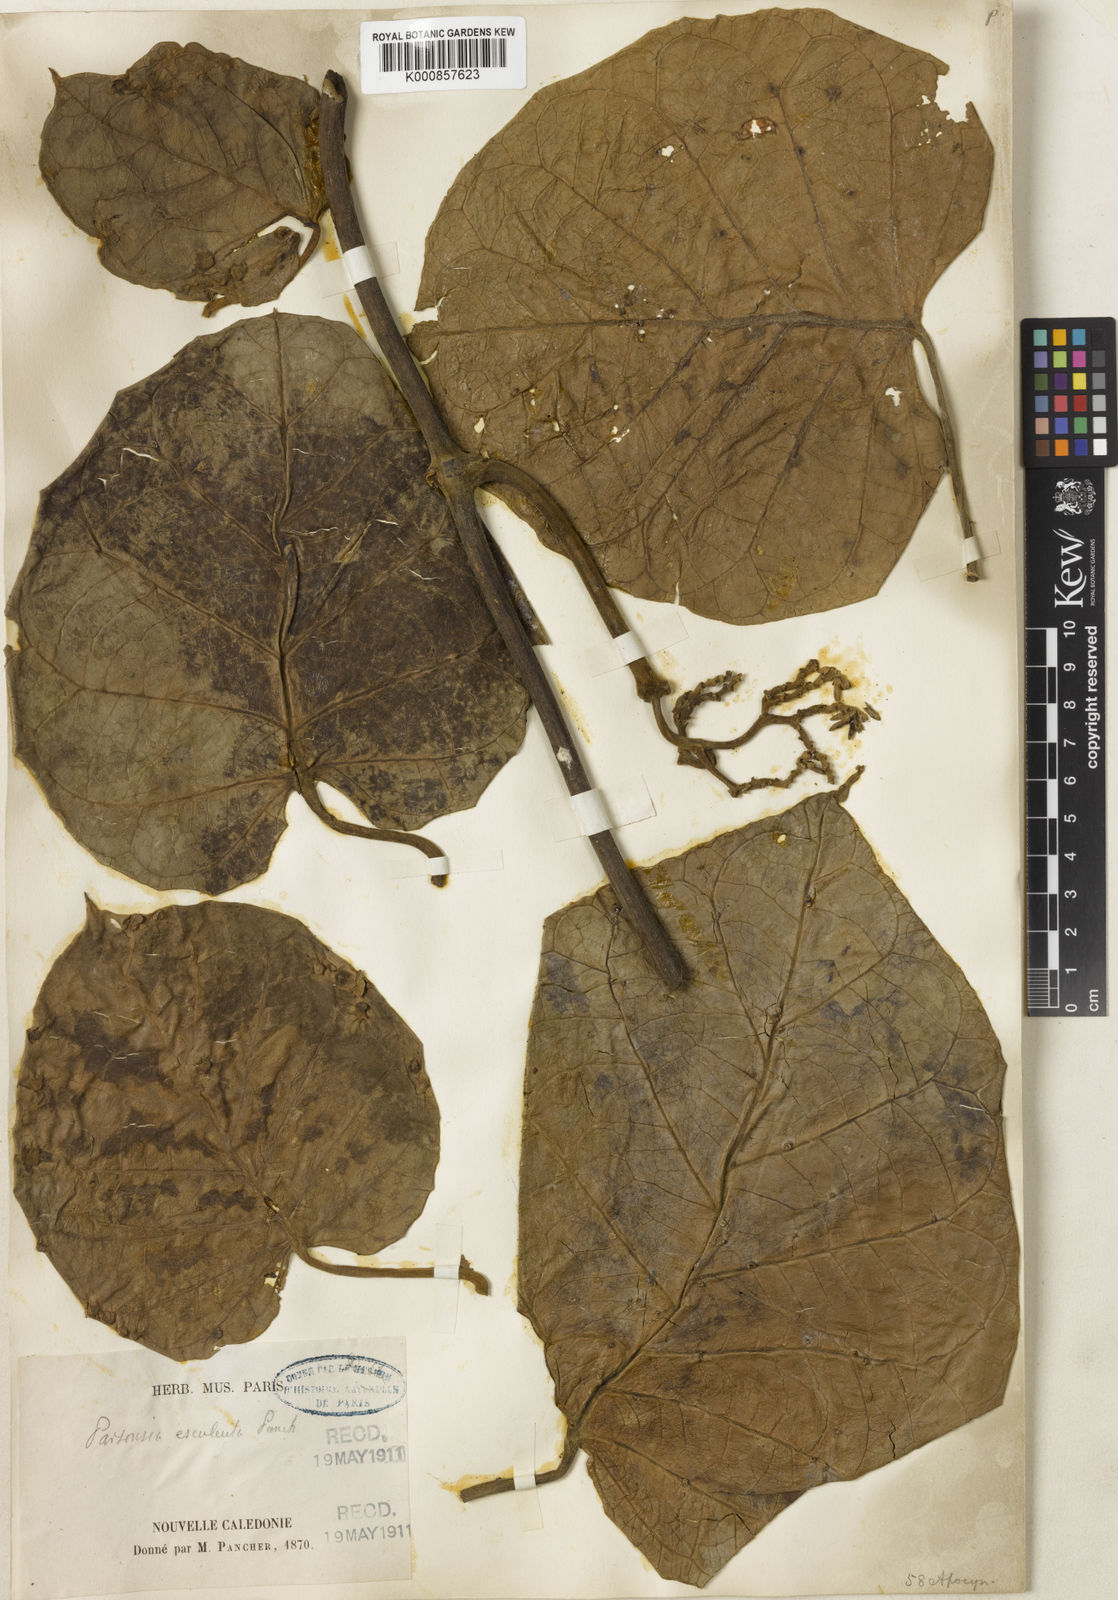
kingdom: Plantae
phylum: Tracheophyta
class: Magnoliopsida
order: Gentianales
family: Apocynaceae
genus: Parsonsia
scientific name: Parsonsia edulis
